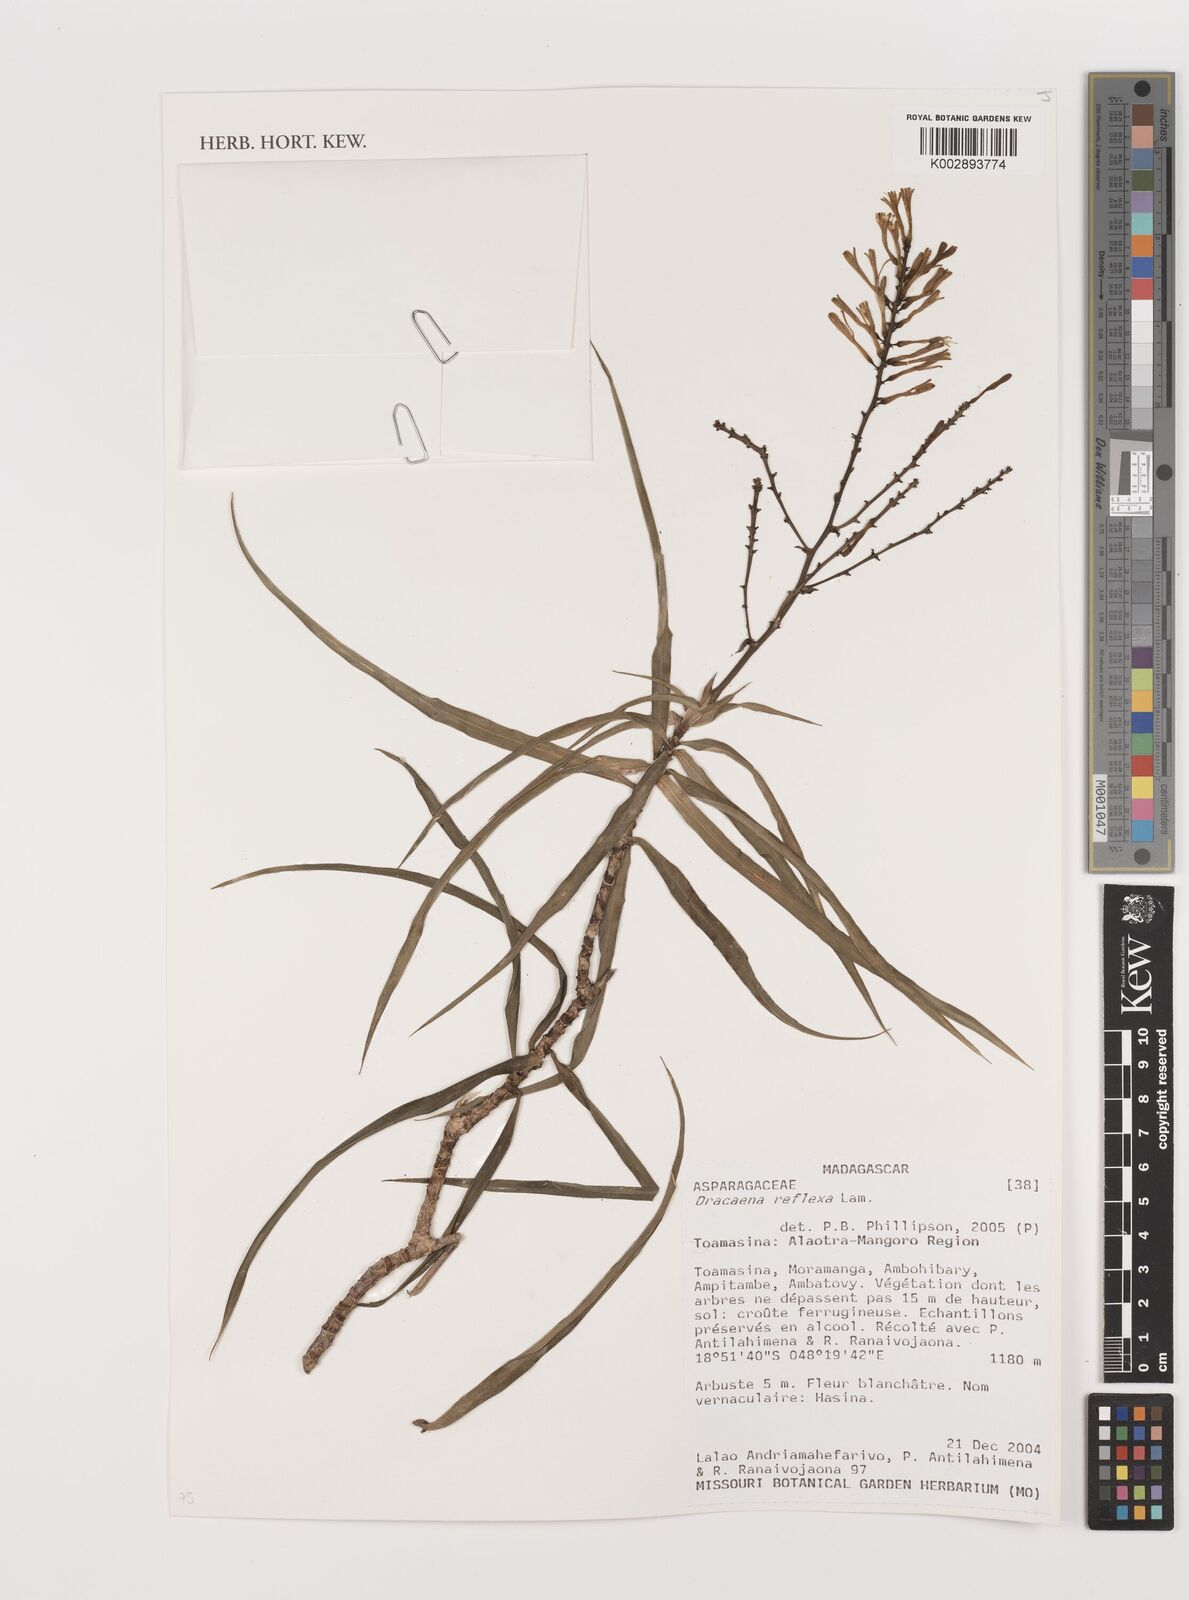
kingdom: Plantae
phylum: Tracheophyta
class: Liliopsida
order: Asparagales
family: Asparagaceae
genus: Dracaena
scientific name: Dracaena reflexa
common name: Song-of-india
